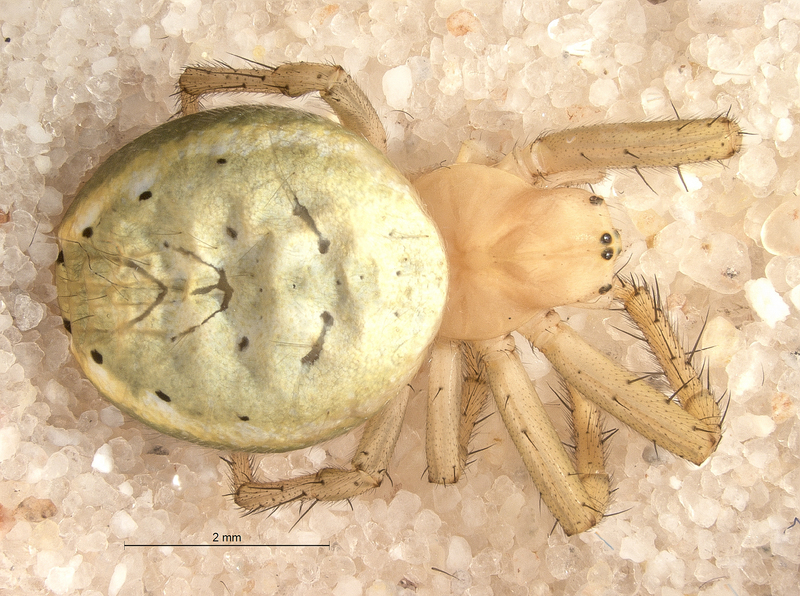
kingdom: Animalia
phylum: Arthropoda
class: Arachnida
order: Araneae
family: Araneidae
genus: Araniella
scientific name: Araniella cucurbitina
